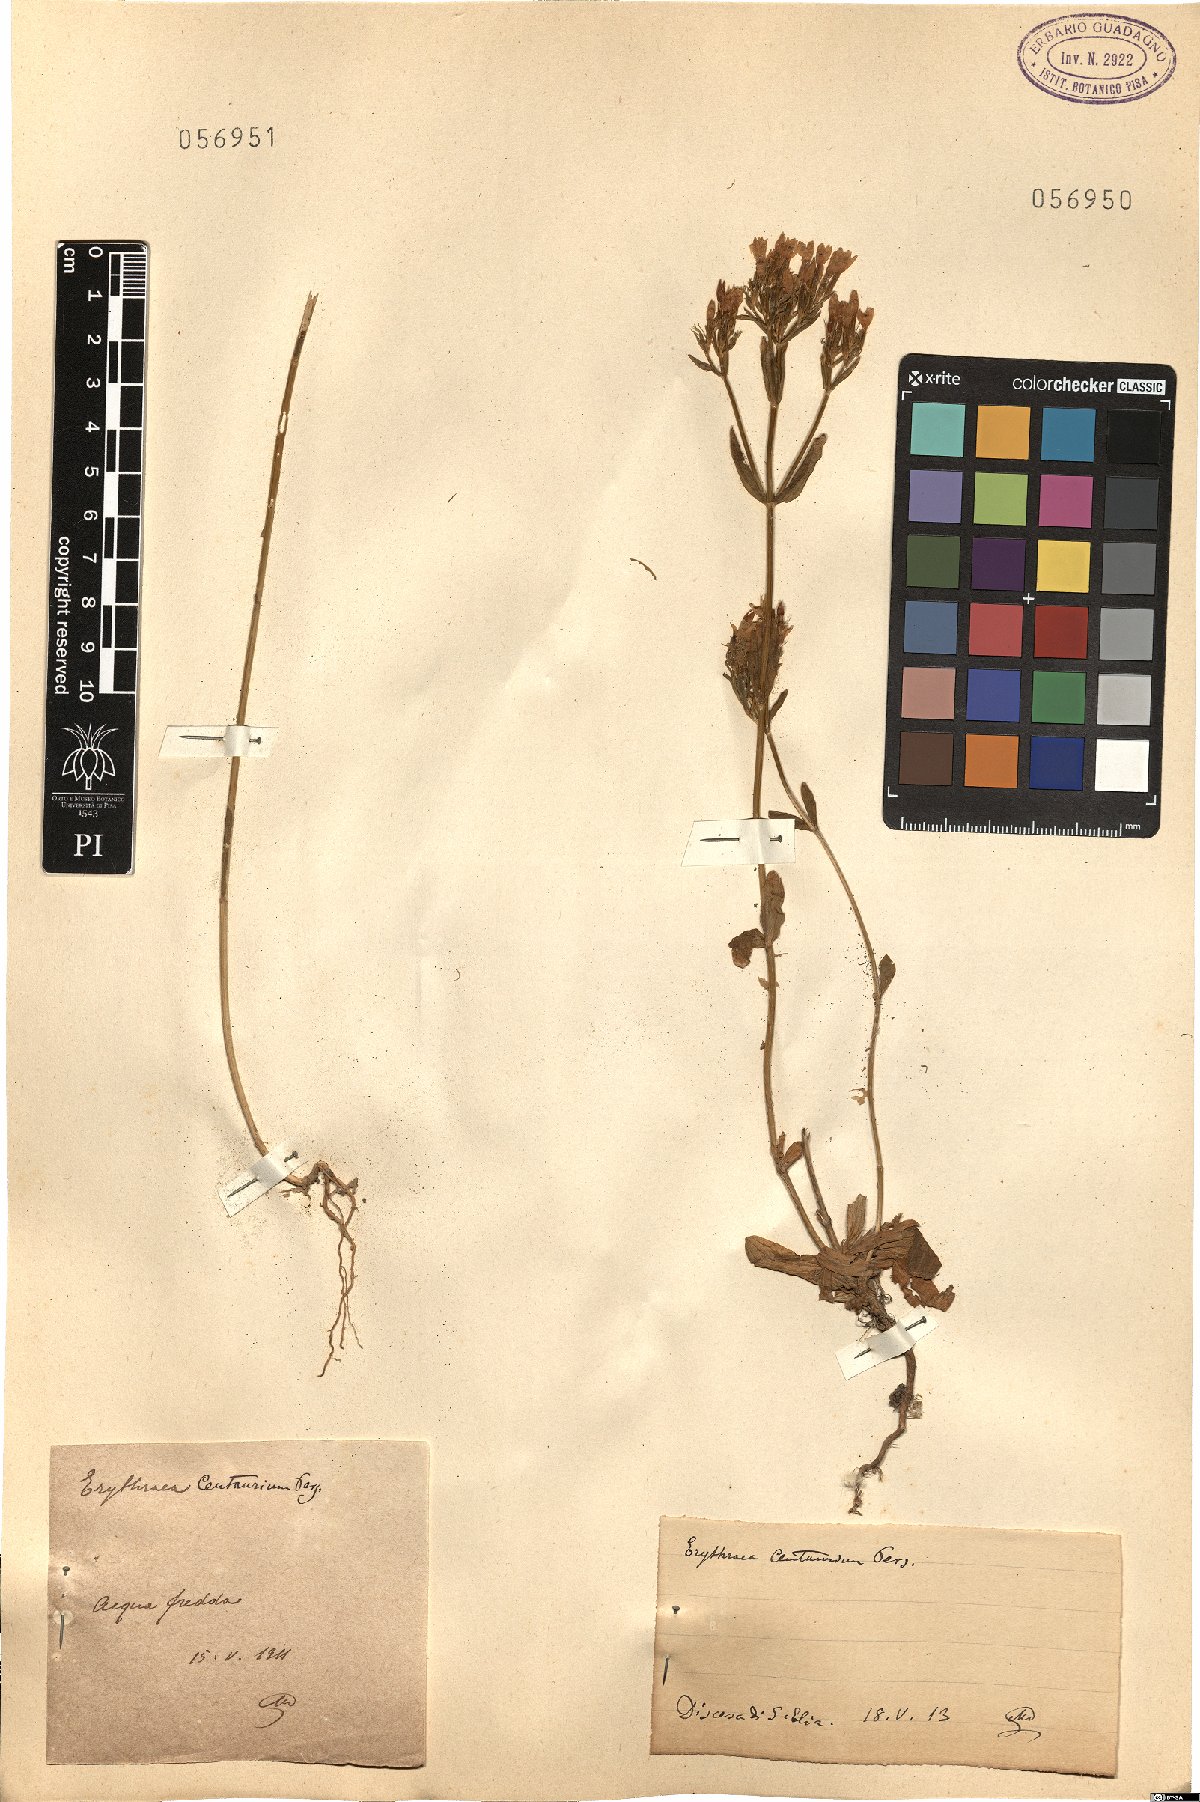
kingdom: Plantae
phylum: Tracheophyta
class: Magnoliopsida
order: Gentianales
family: Gentianaceae
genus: Centaurium
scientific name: Centaurium erythraea
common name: Common centaury
